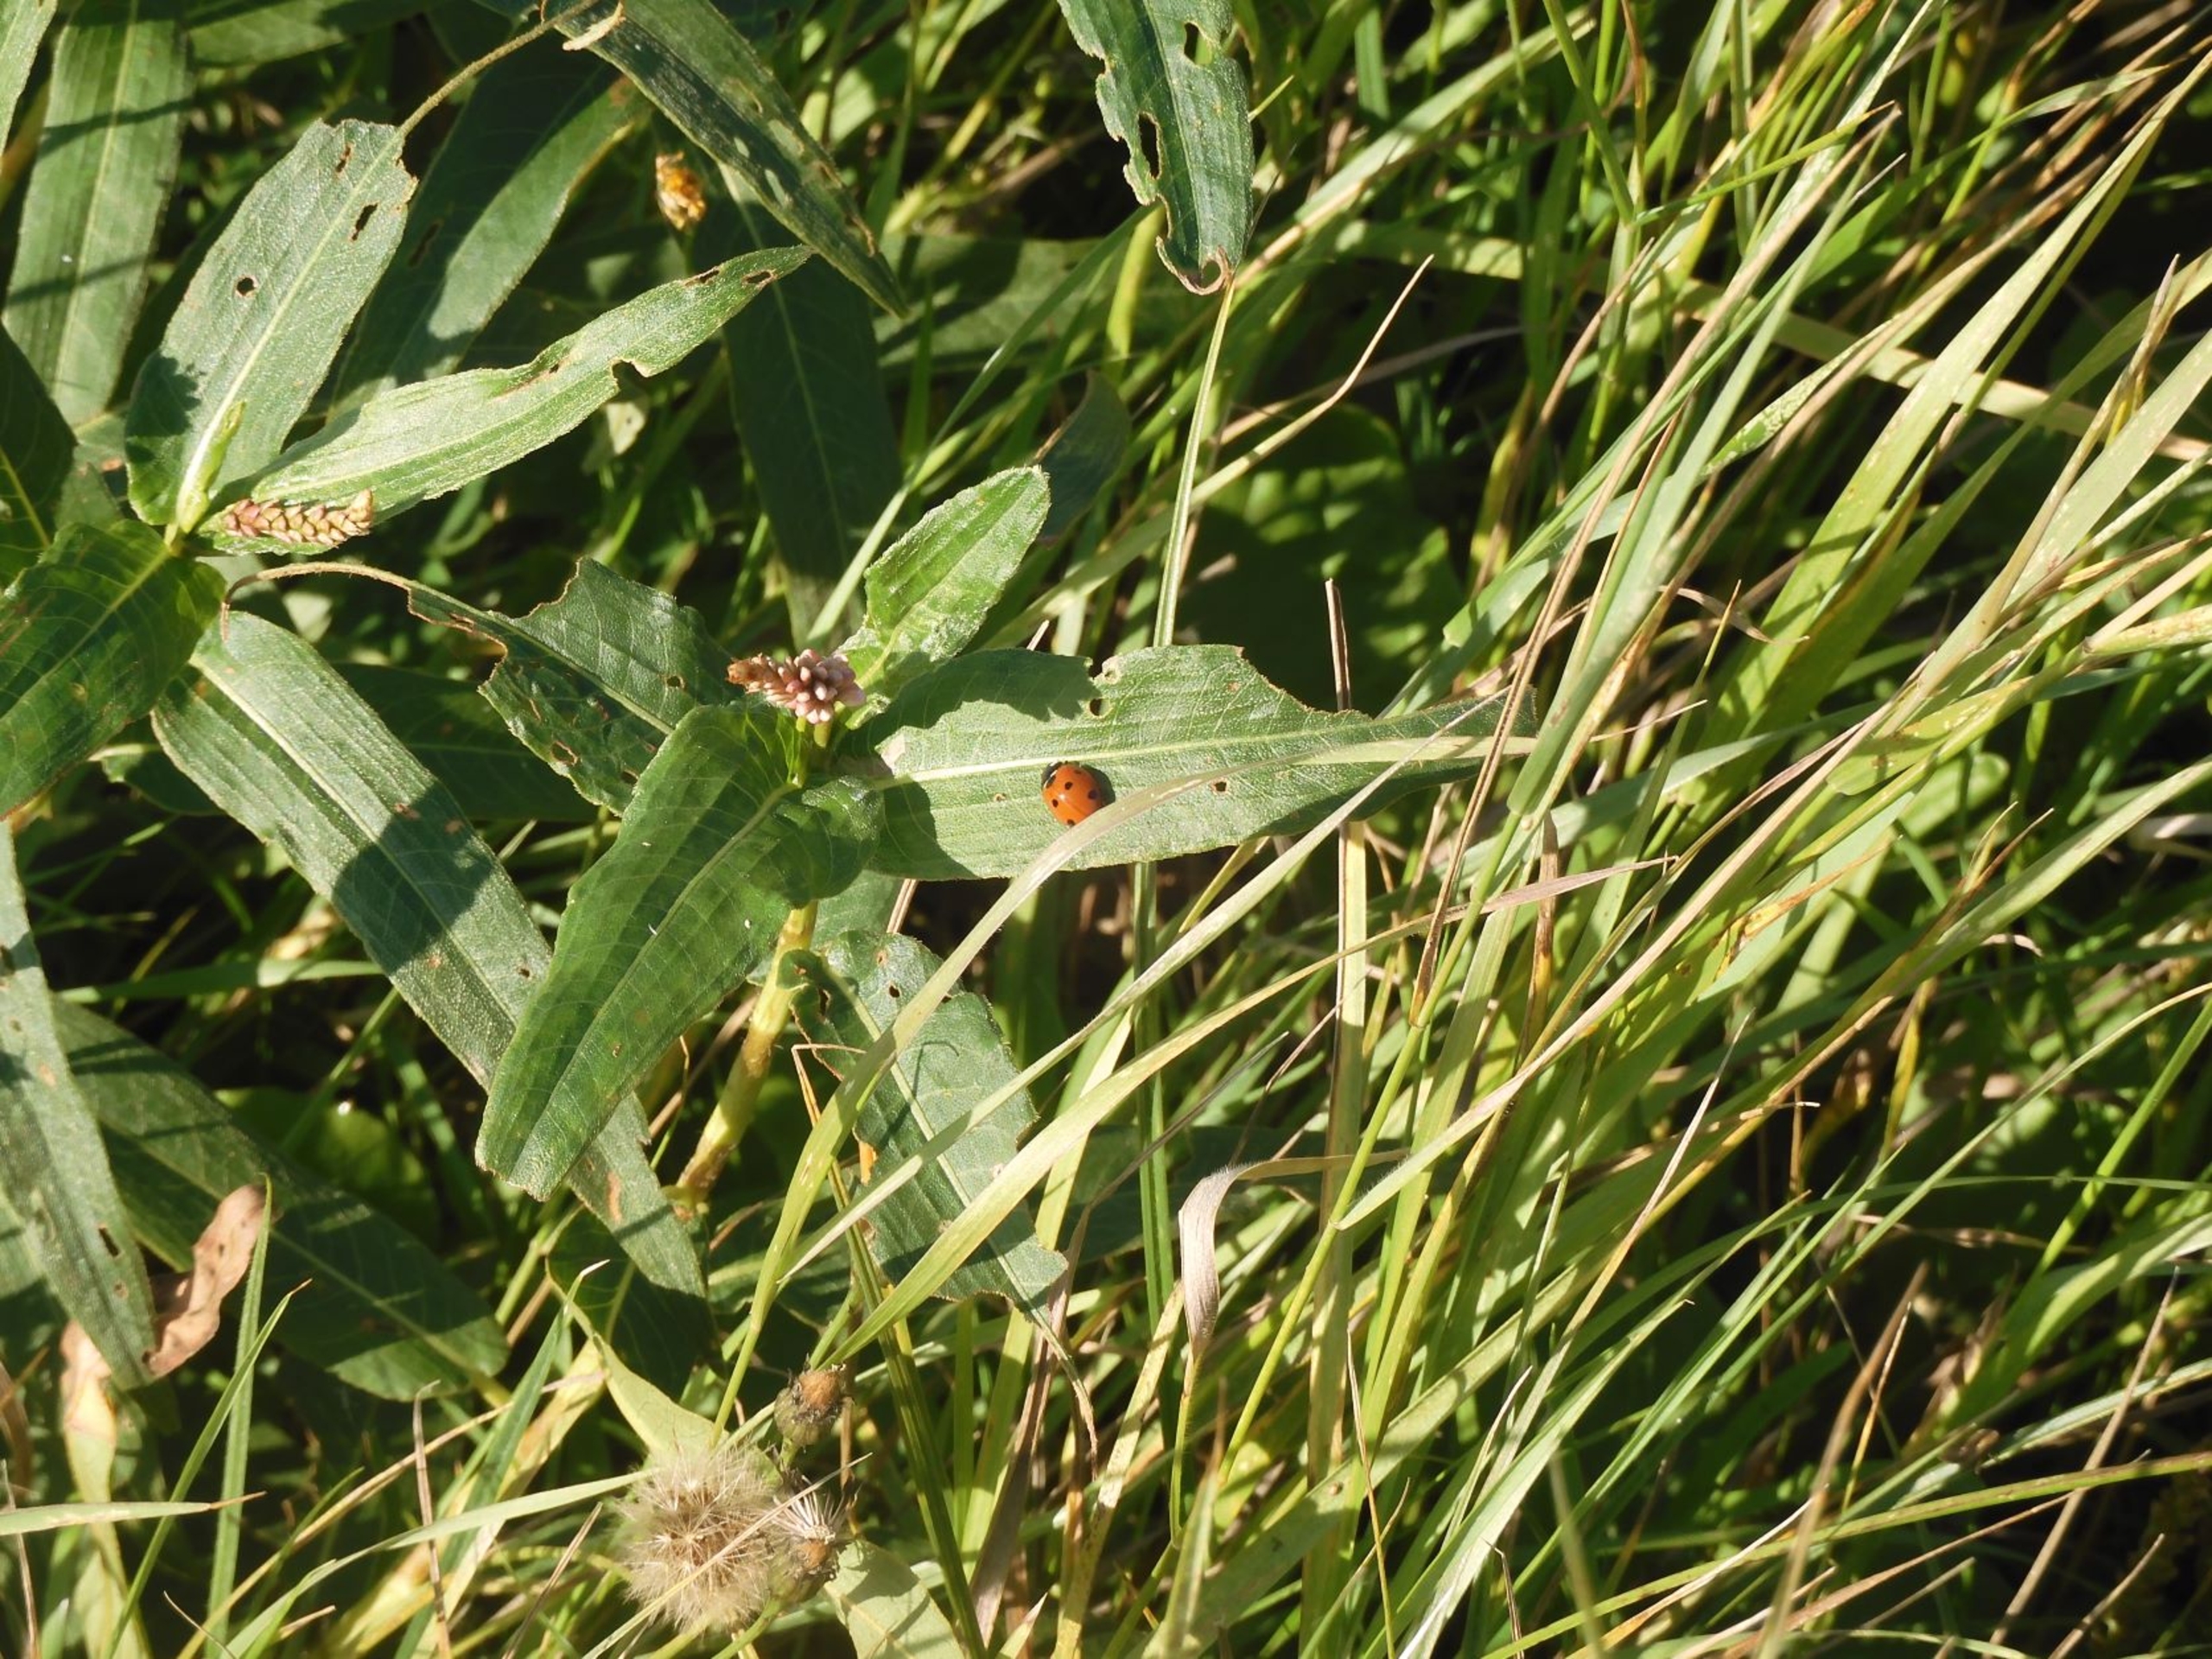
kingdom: Plantae
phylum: Tracheophyta
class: Magnoliopsida
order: Caryophyllales
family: Polygonaceae
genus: Persicaria
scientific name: Persicaria amphibia
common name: Vand-pileurt
